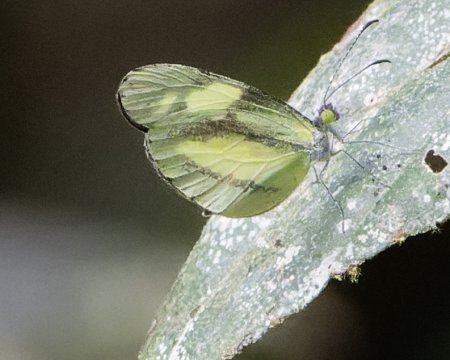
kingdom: Animalia
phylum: Arthropoda
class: Insecta
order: Lepidoptera
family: Pieridae
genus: Dismorphia
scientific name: Dismorphia zathoe
